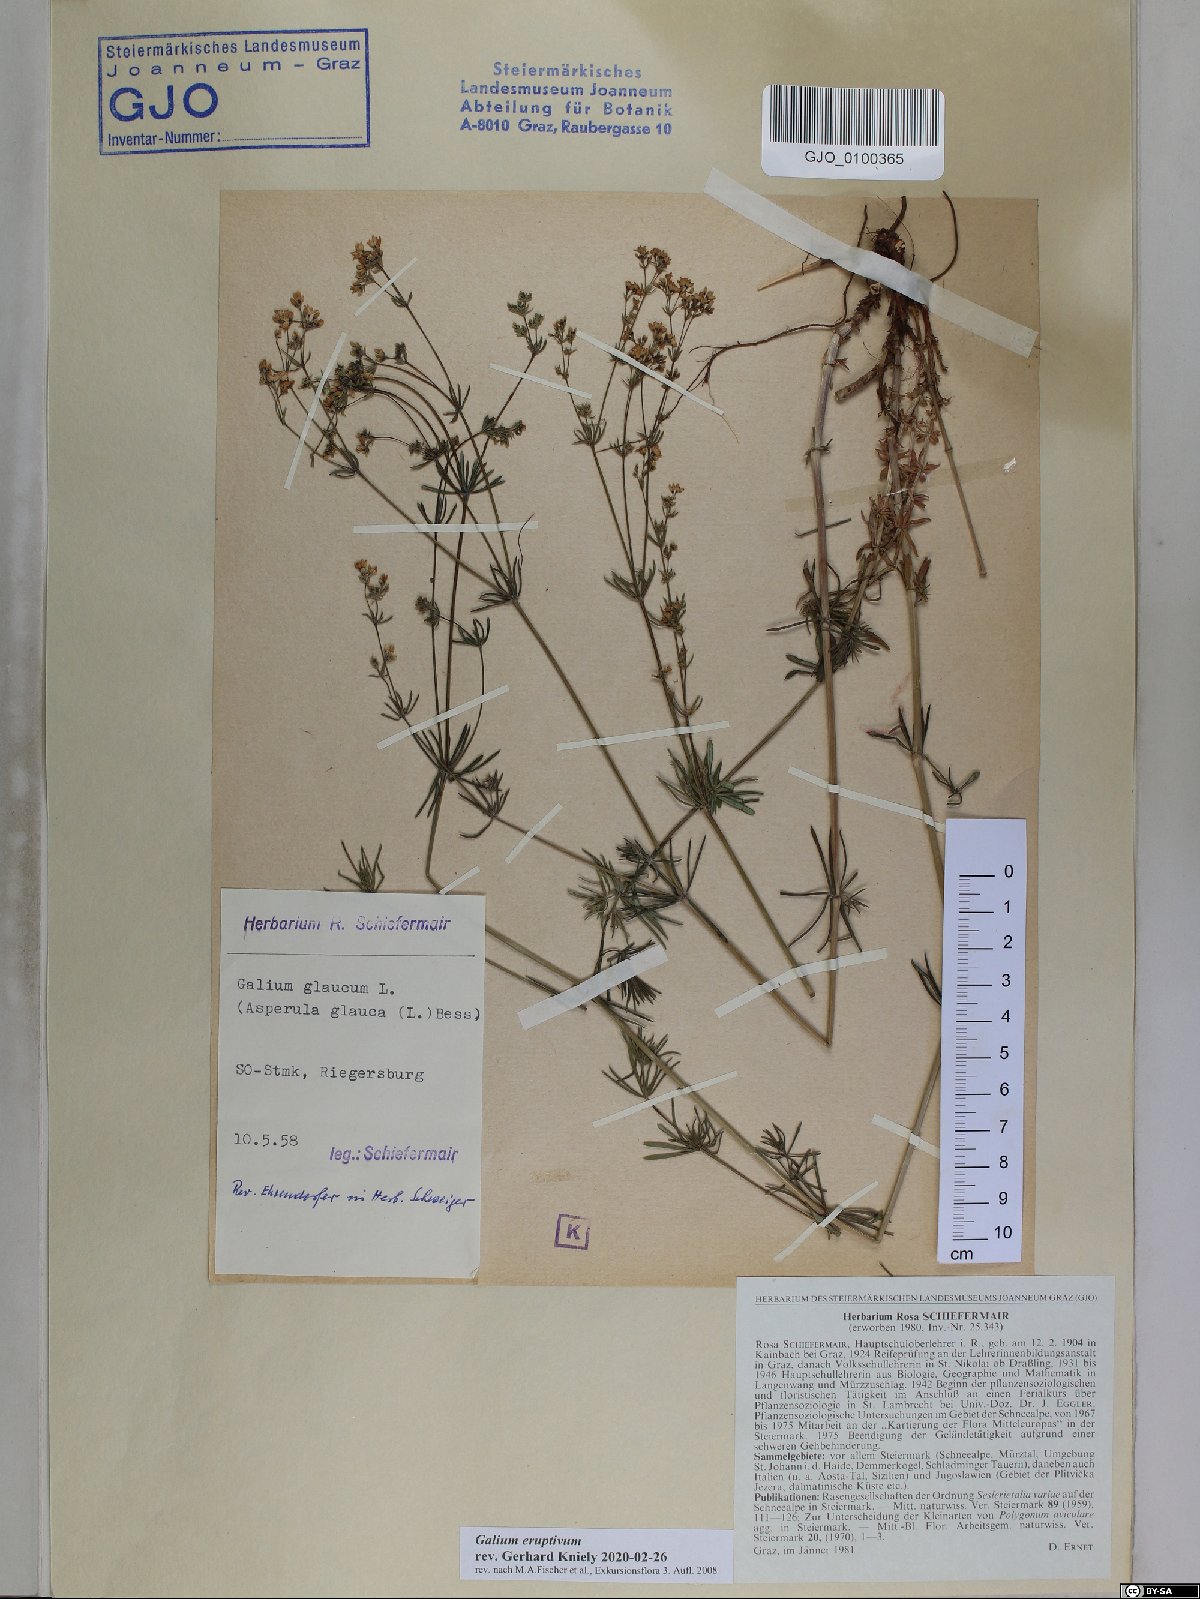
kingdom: Plantae
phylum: Tracheophyta
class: Magnoliopsida
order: Gentianales
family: Rubiaceae
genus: Galium
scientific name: Galium eruptivum
